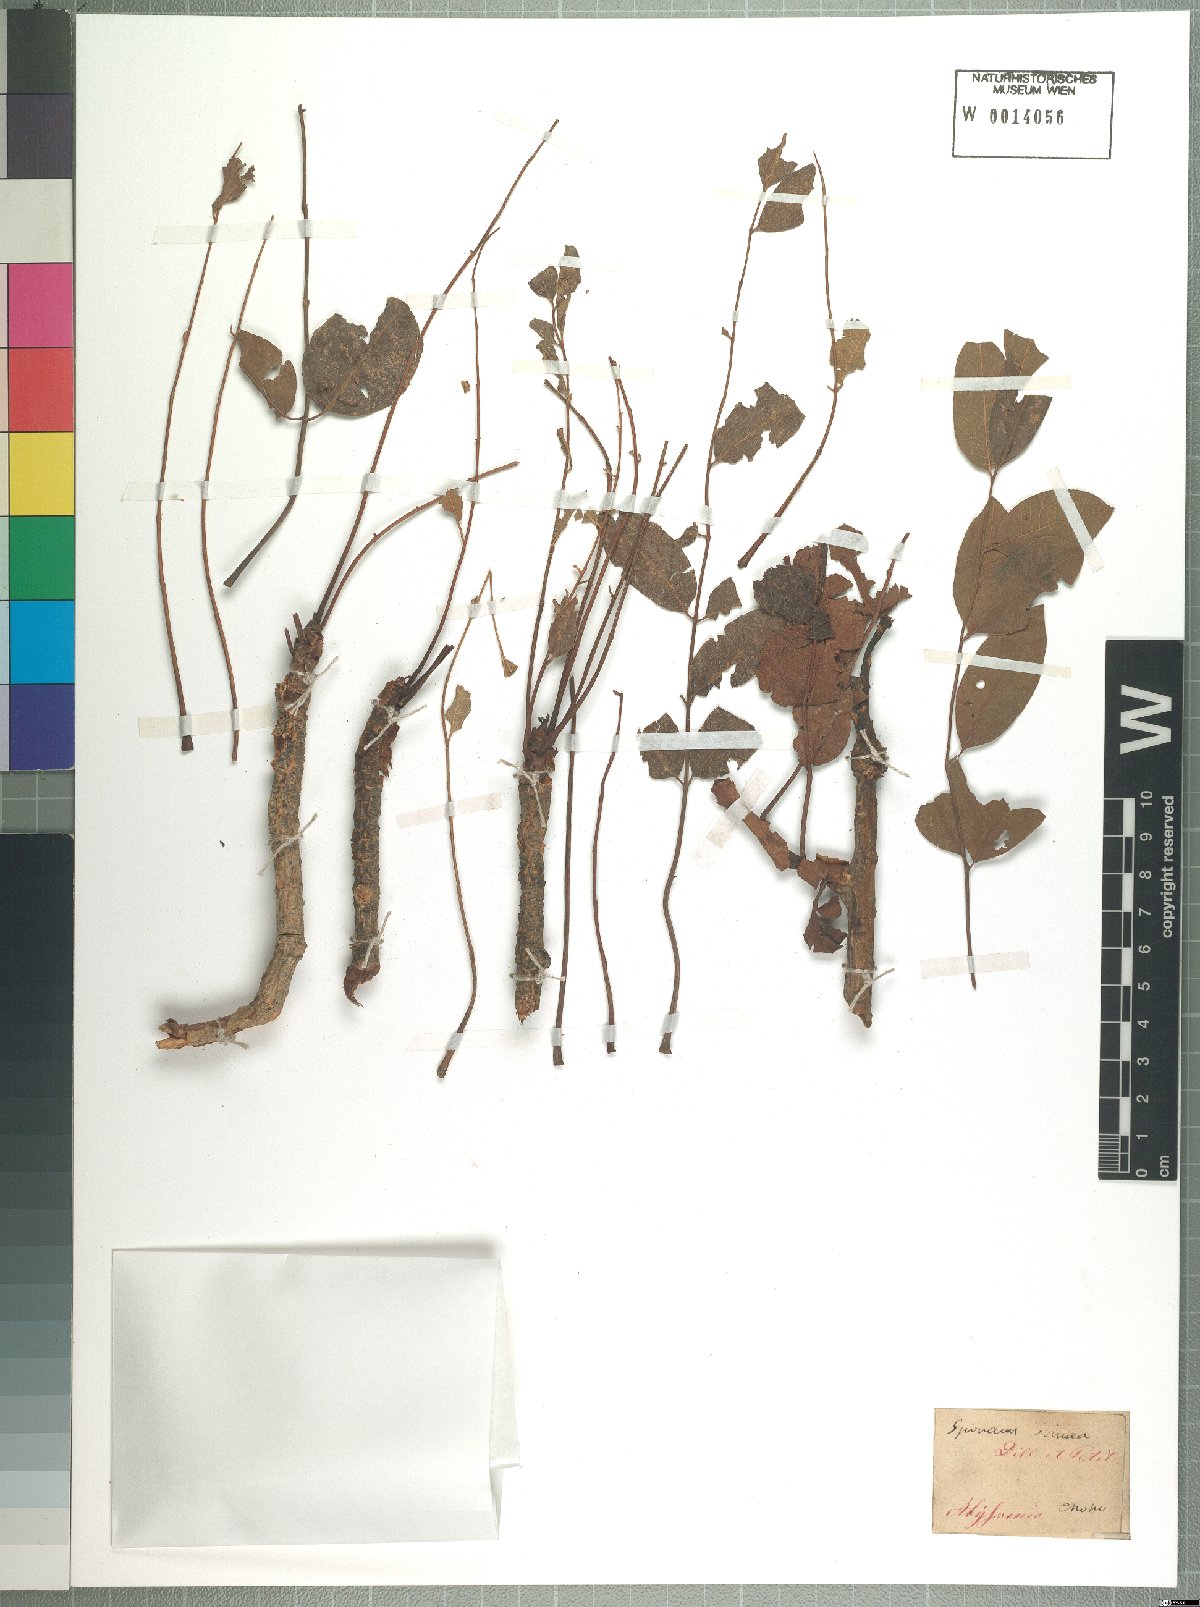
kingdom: Plantae
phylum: Tracheophyta
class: Magnoliopsida
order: Sapindales
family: Anacardiaceae
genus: Sclerocarya
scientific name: Sclerocarya birrea
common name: Marula
